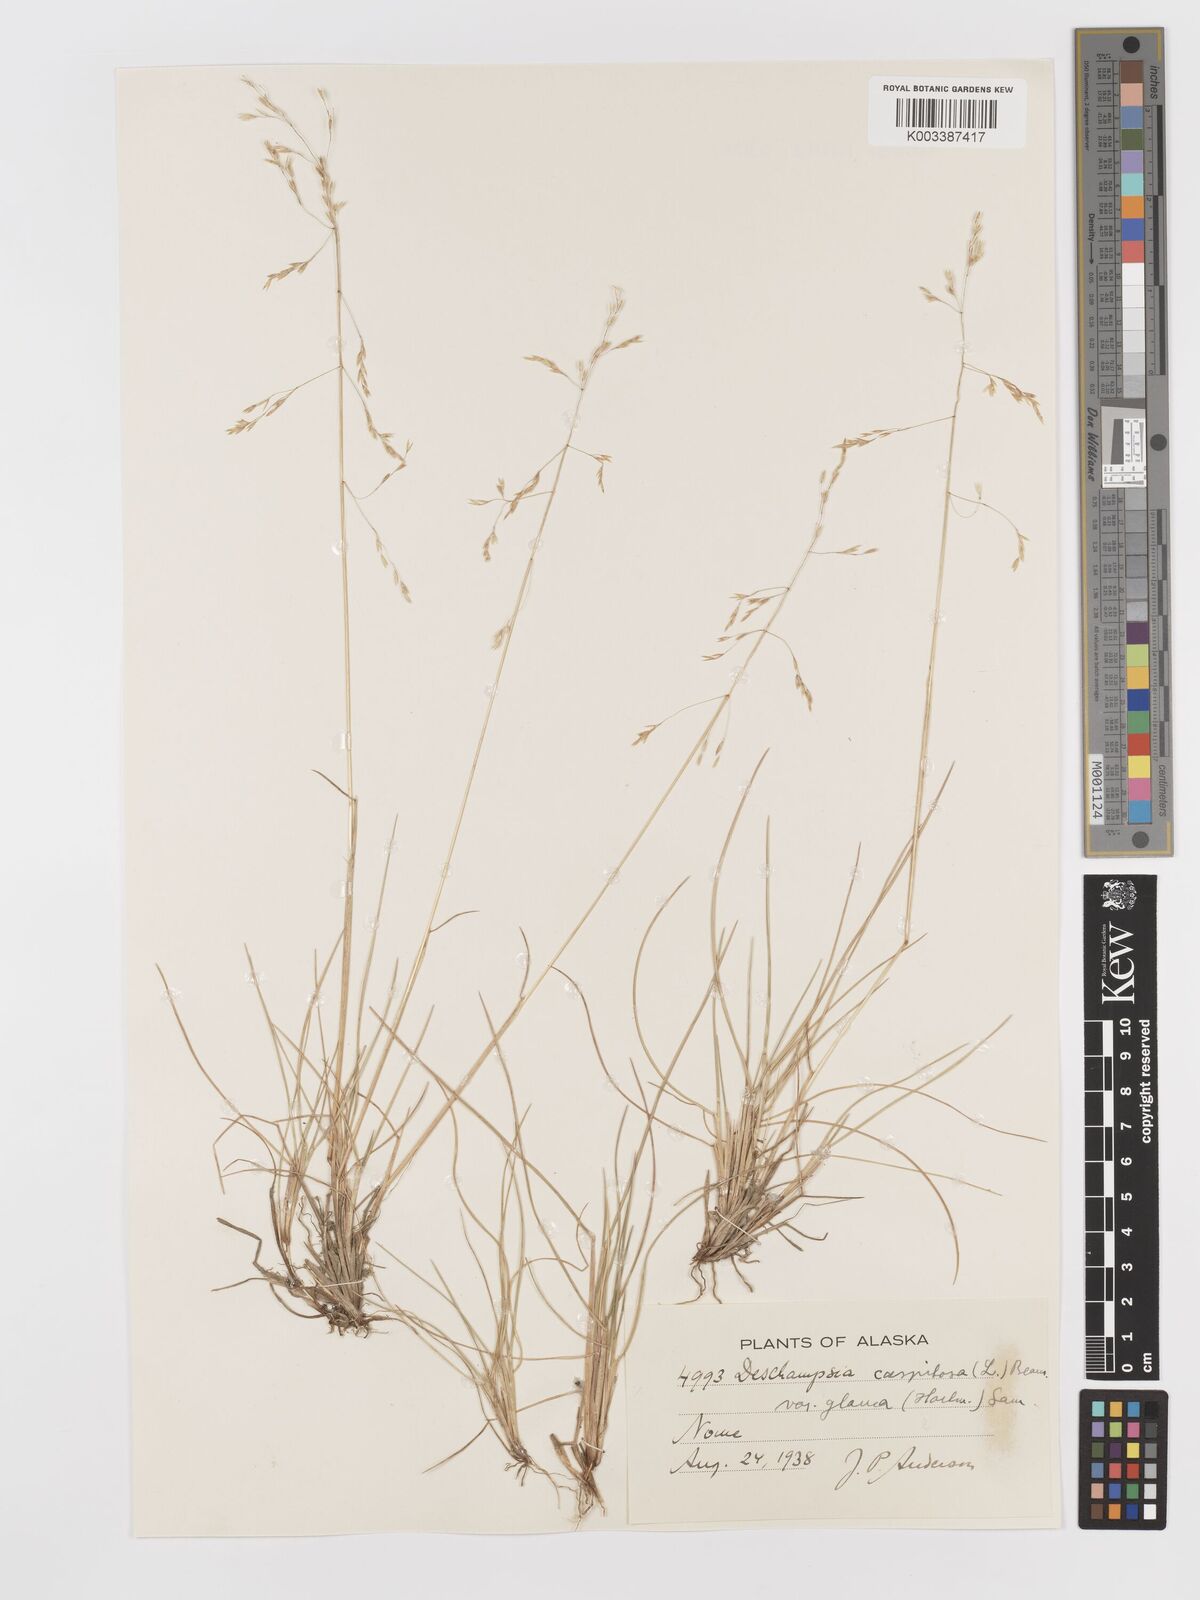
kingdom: Plantae
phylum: Tracheophyta
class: Liliopsida
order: Poales
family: Poaceae
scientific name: Poaceae
